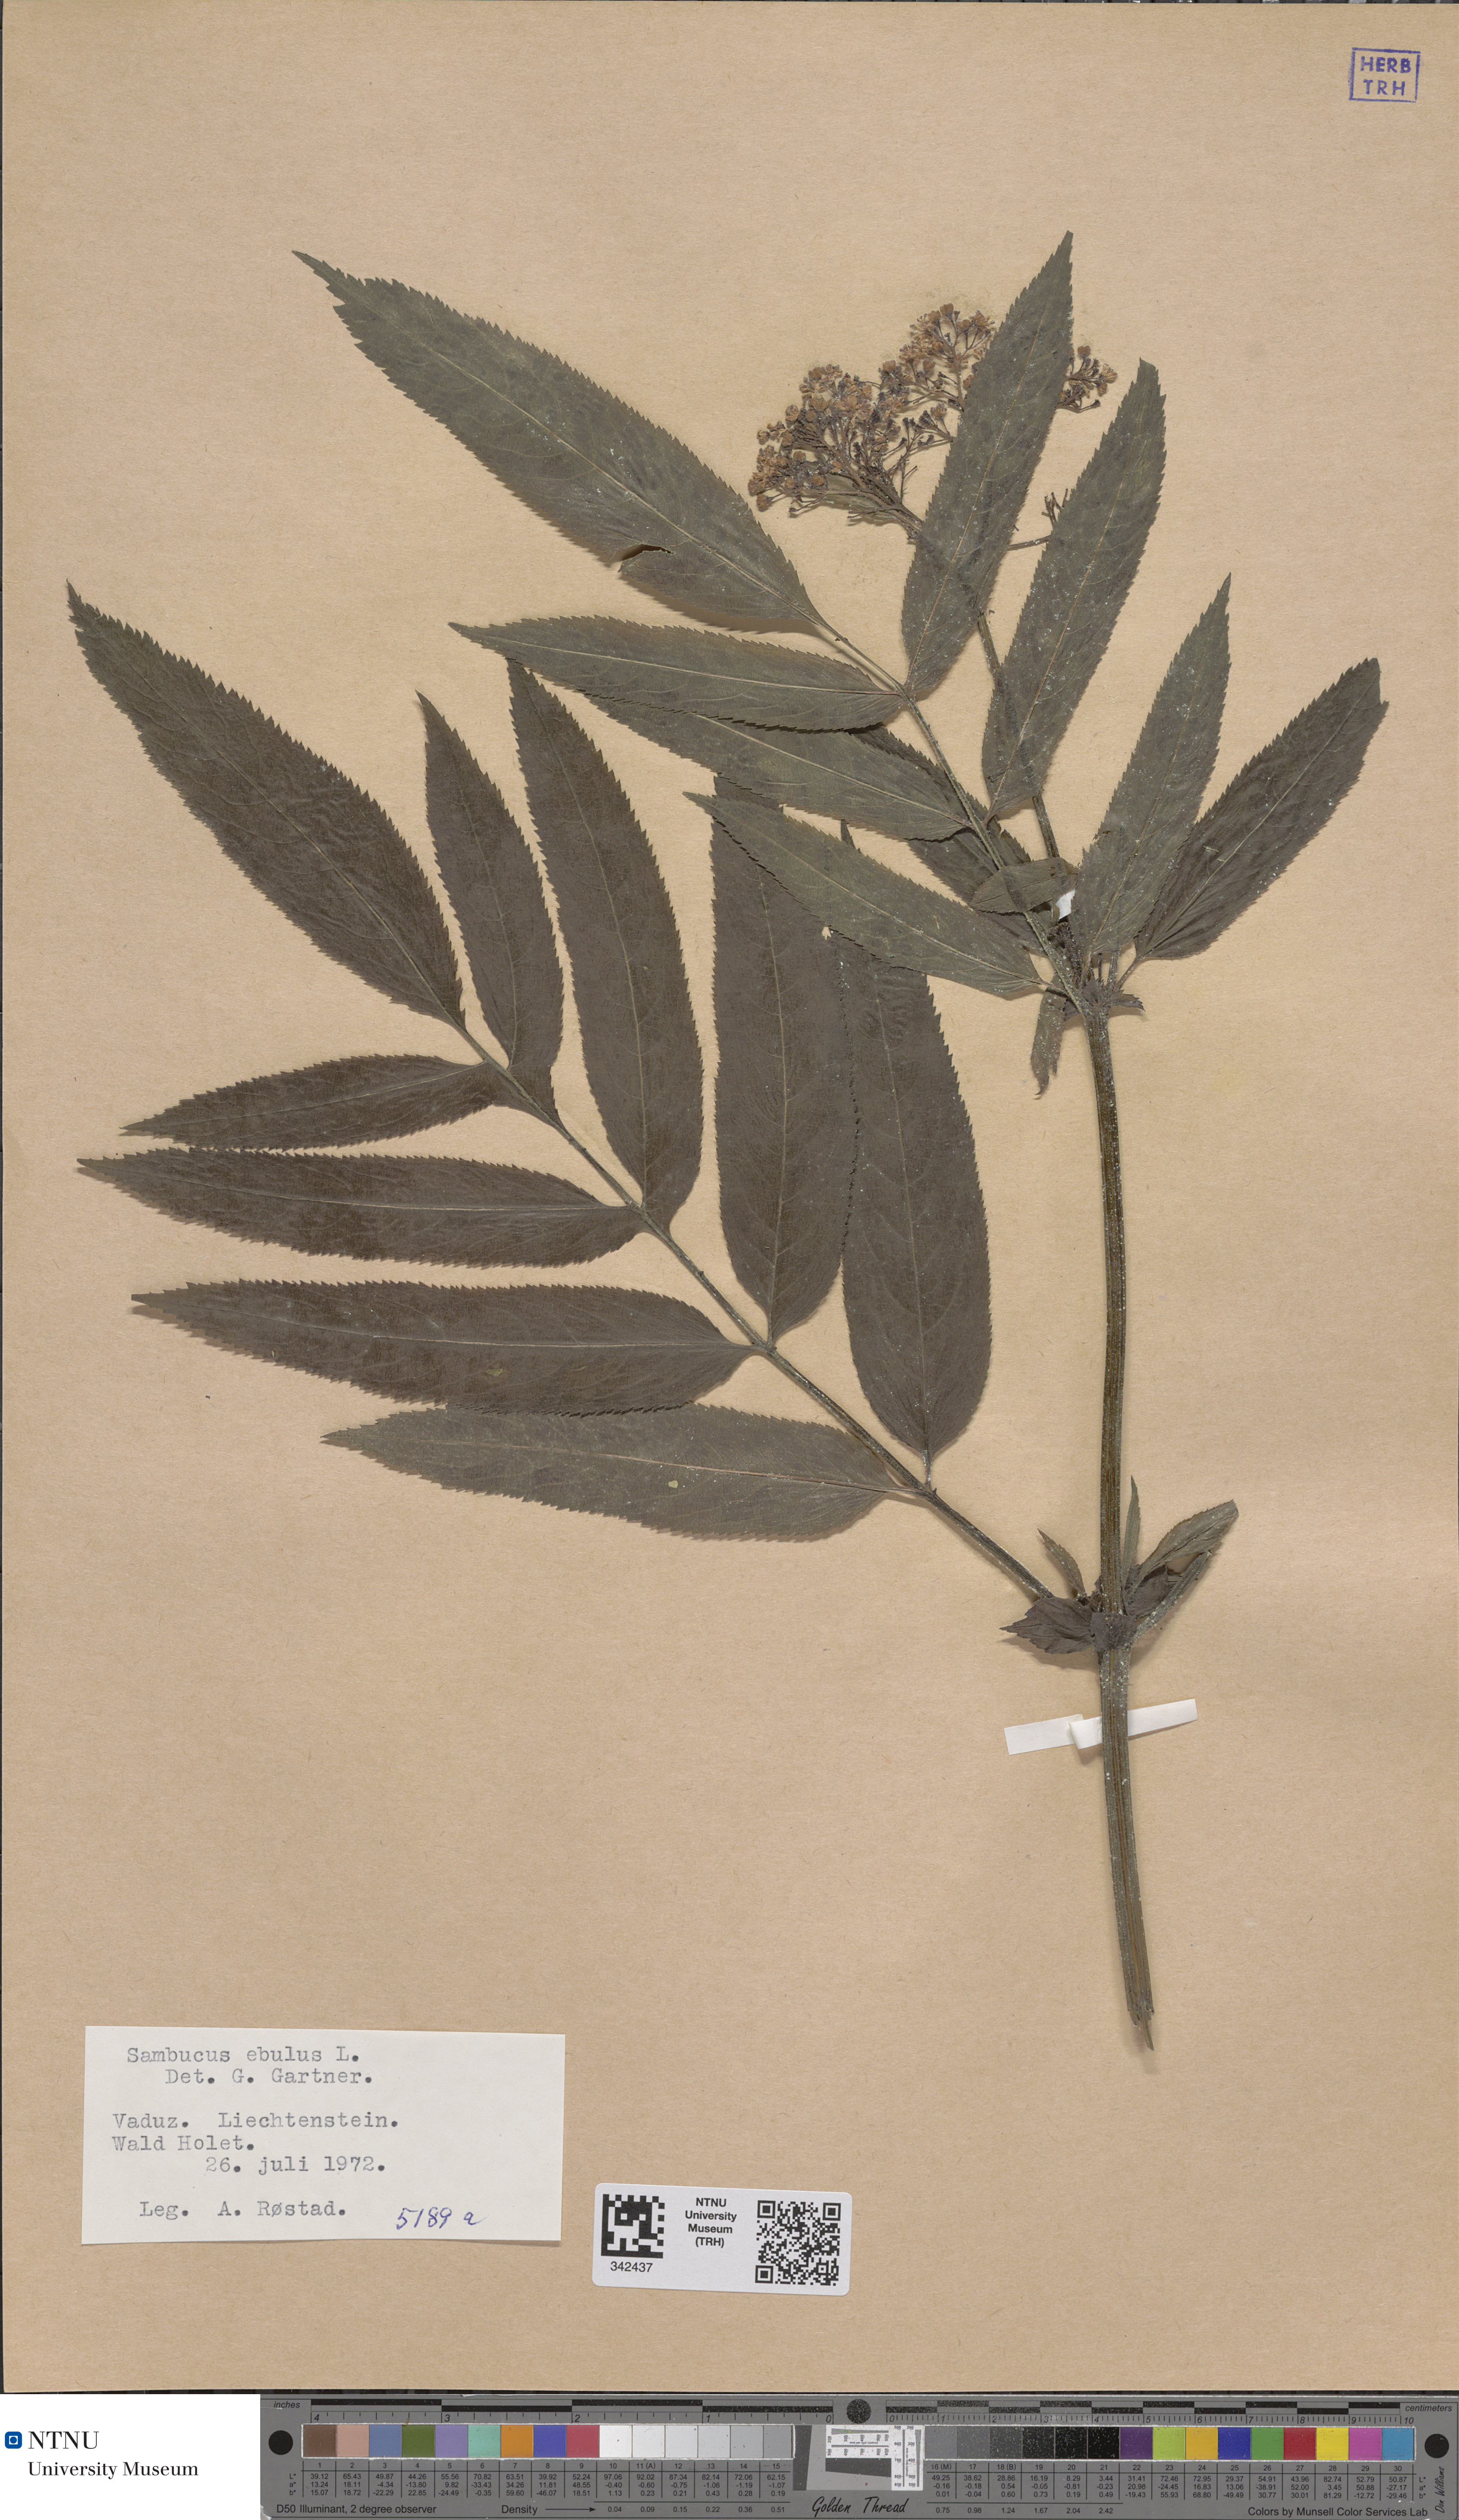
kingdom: Plantae
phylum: Tracheophyta
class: Magnoliopsida
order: Dipsacales
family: Viburnaceae
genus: Sambucus
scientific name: Sambucus ebulus
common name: Dwarf elder
